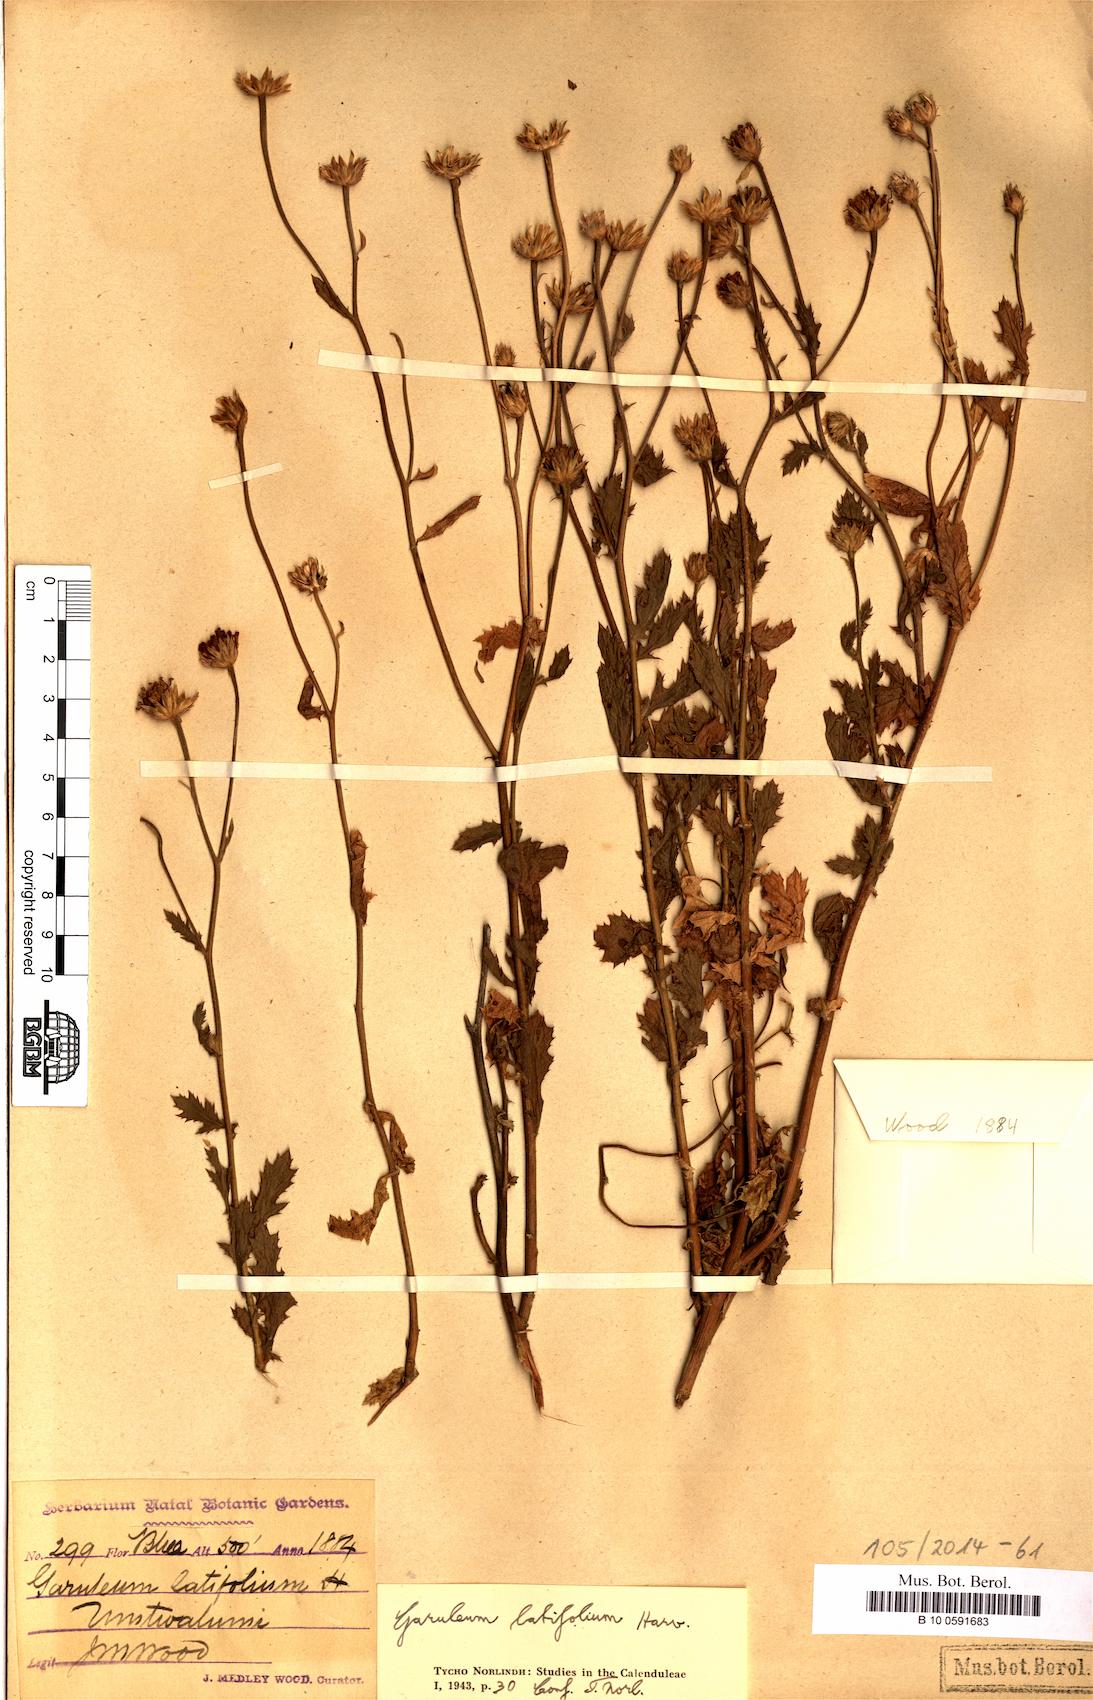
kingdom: Plantae
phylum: Tracheophyta
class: Magnoliopsida
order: Asterales
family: Asteraceae
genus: Garuleum
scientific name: Garuleum latifolium
